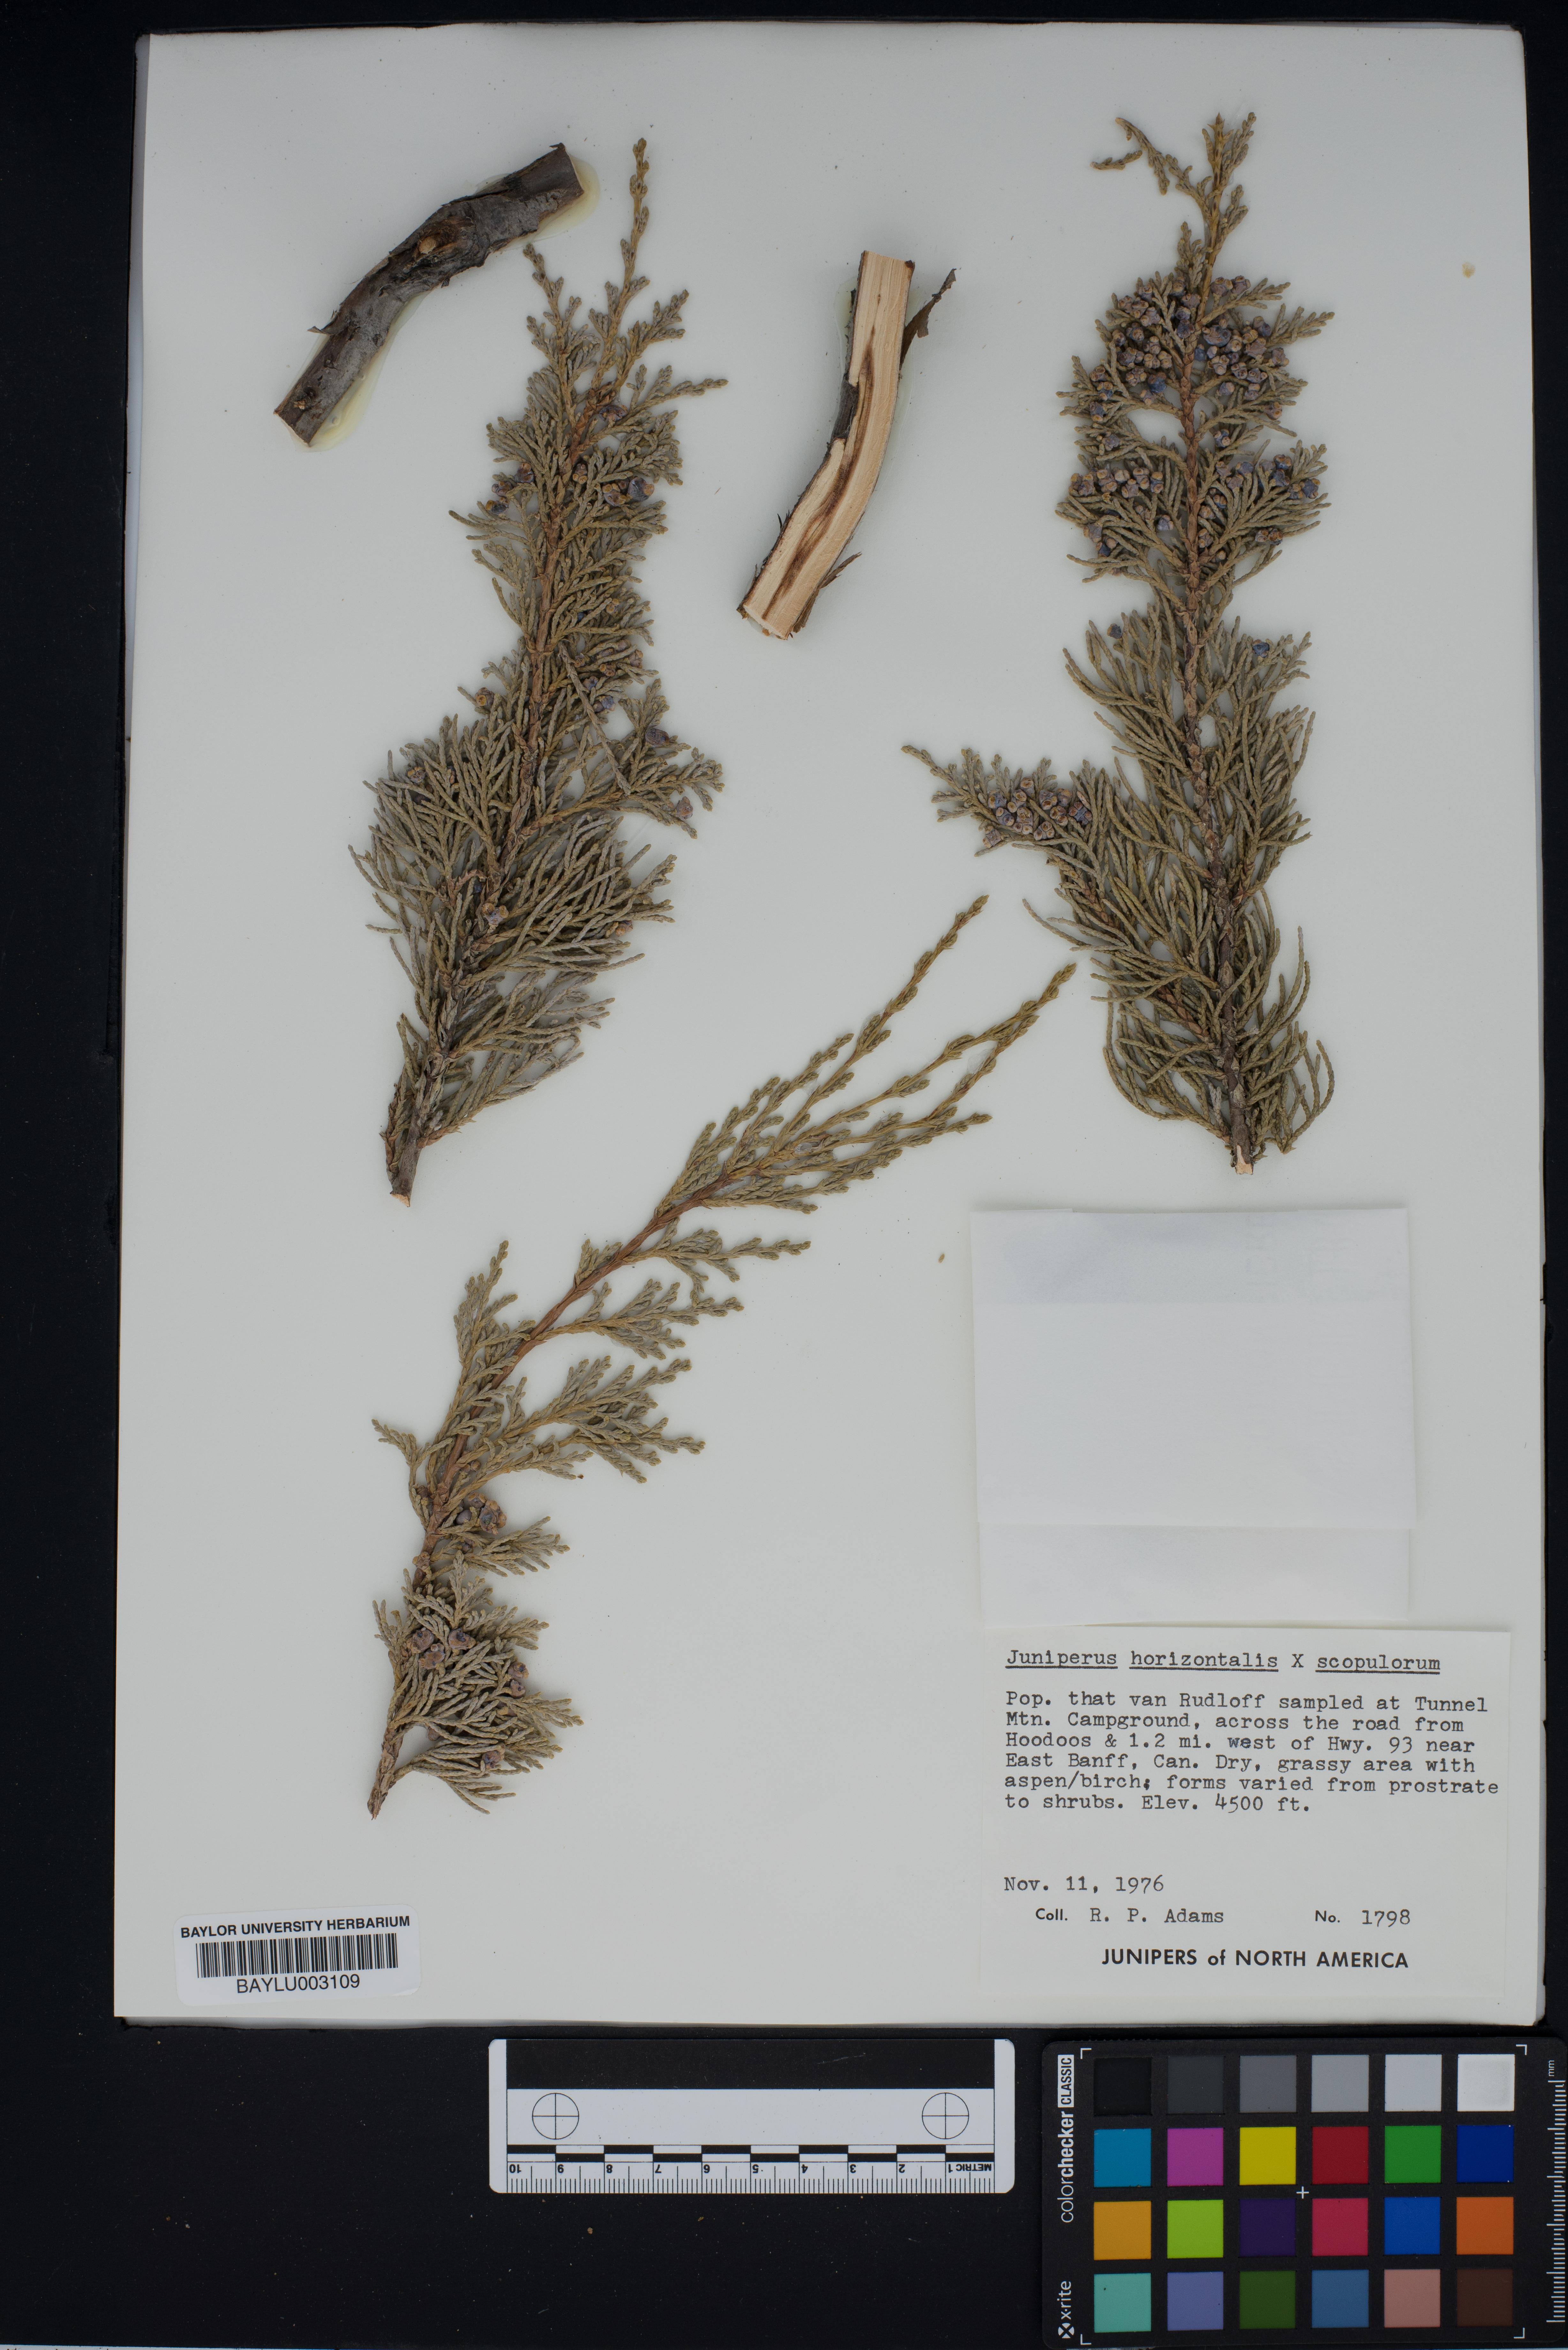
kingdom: Plantae
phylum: Tracheophyta
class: Pinopsida
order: Pinales
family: Cupressaceae
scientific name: Cupressaceae
